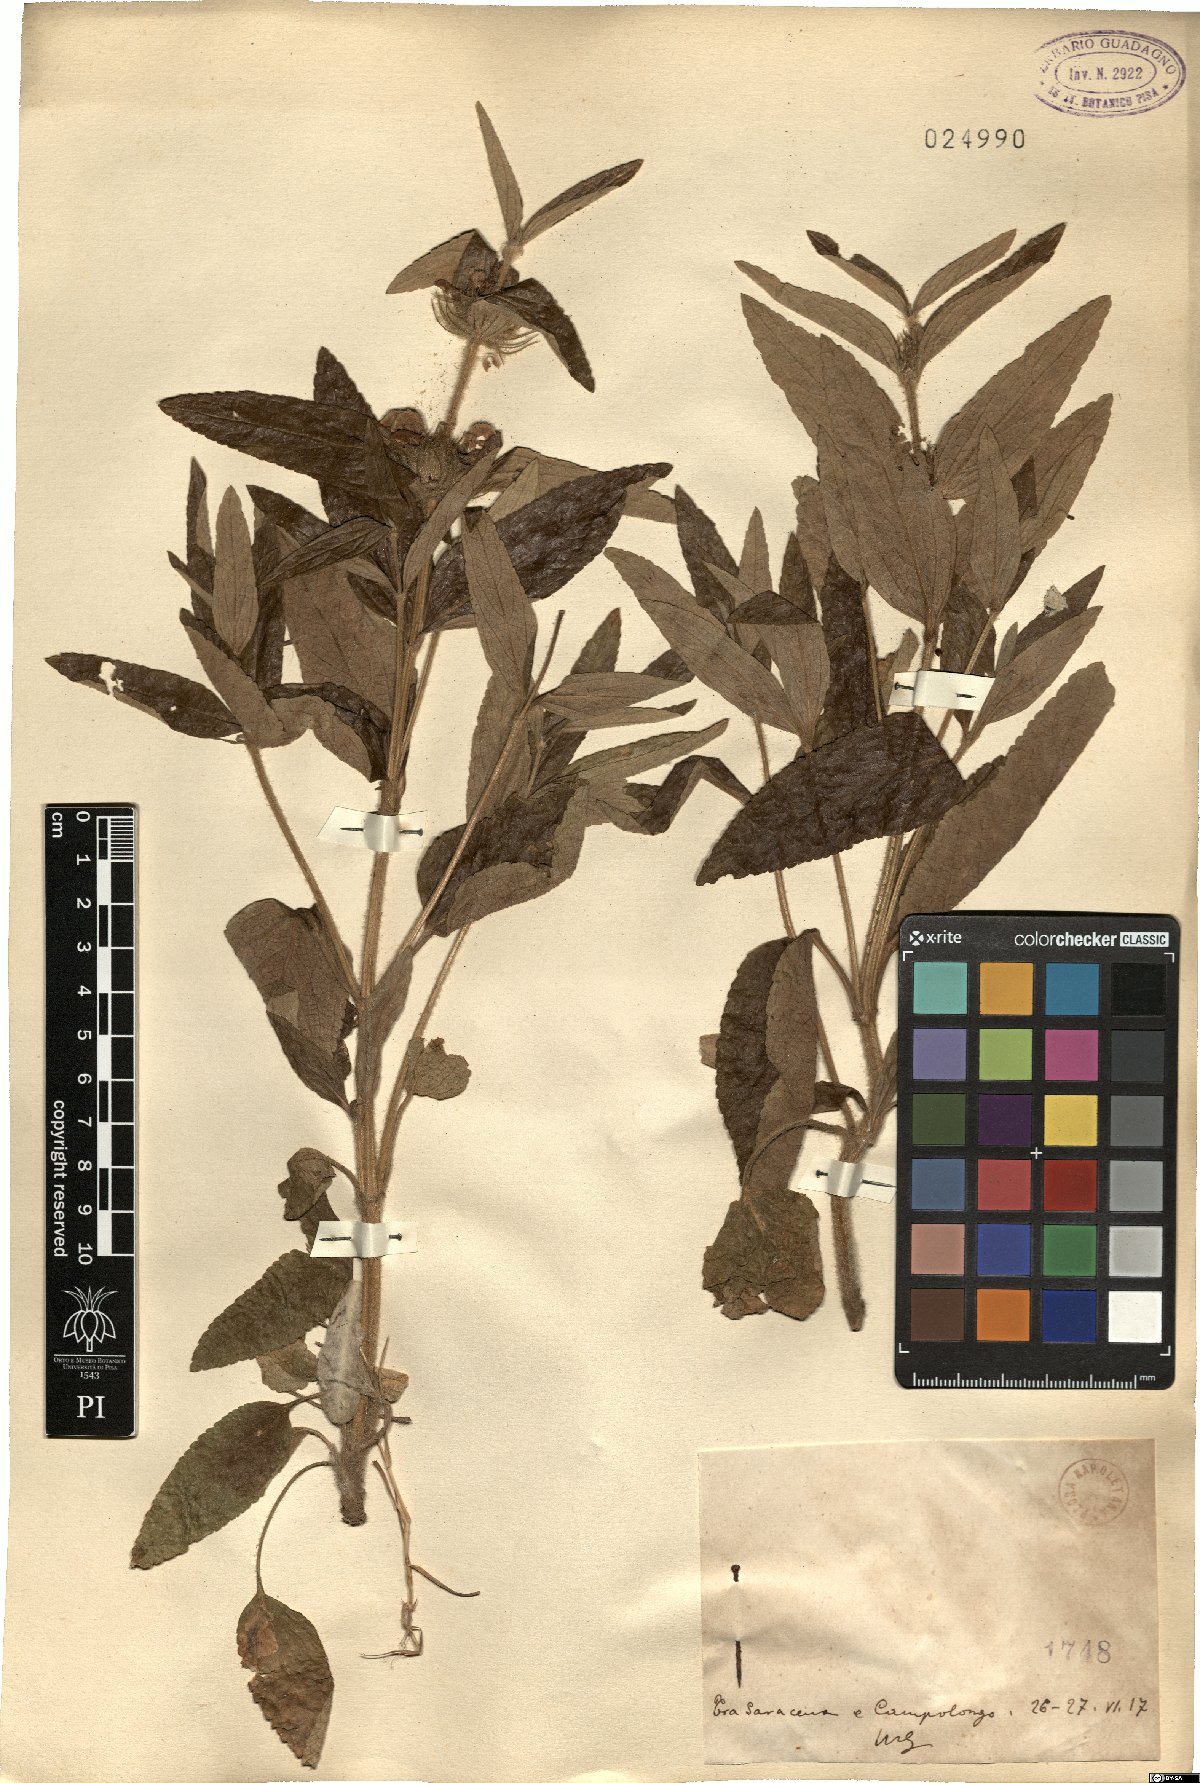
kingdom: Plantae
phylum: Tracheophyta
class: Magnoliopsida
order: Lamiales
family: Lamiaceae
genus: Phlomis
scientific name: Phlomis
